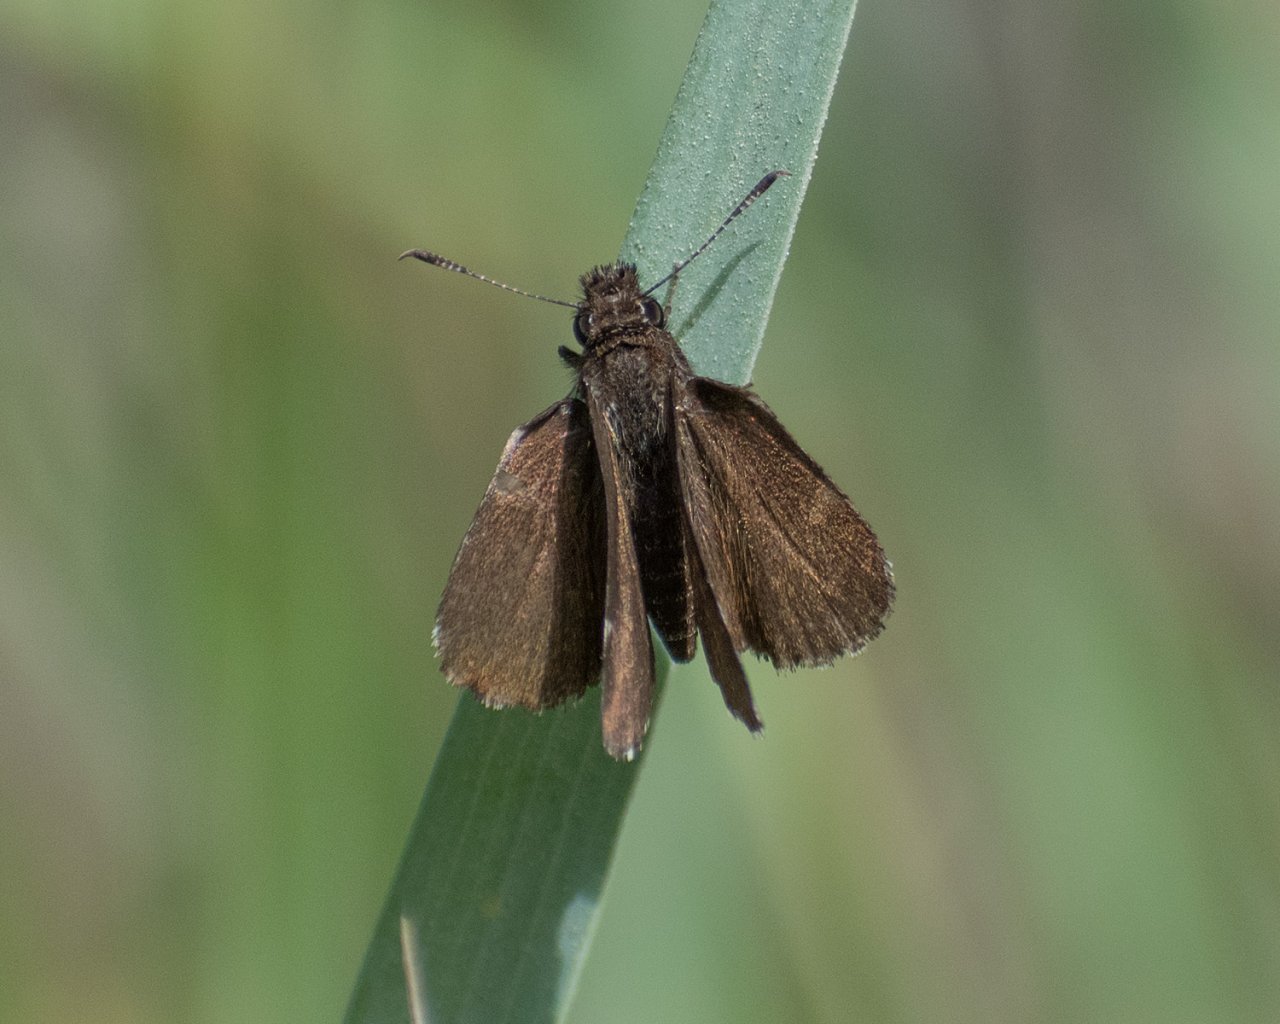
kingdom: Animalia
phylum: Arthropoda
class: Insecta
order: Lepidoptera
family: Hesperiidae
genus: Mastor
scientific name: Mastor vialis
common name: Common Roadside-Skipper
